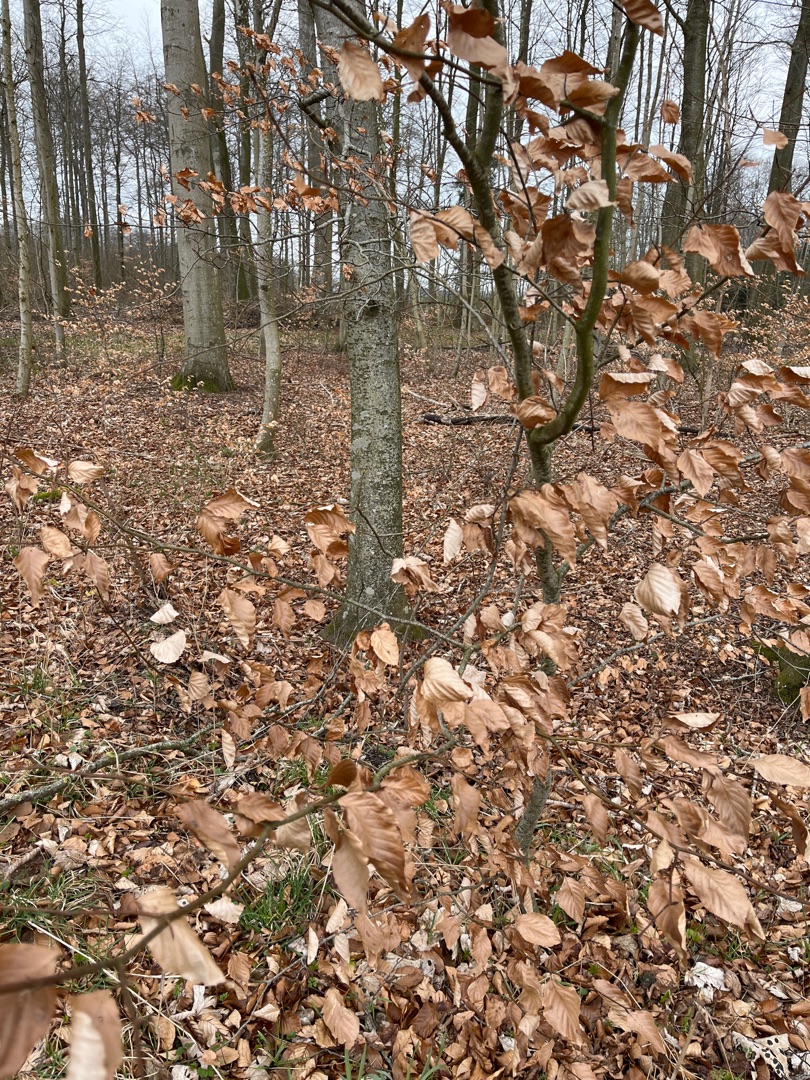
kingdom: Plantae
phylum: Tracheophyta
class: Magnoliopsida
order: Fagales
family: Fagaceae
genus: Fagus
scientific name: Fagus sylvatica
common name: Bøg
